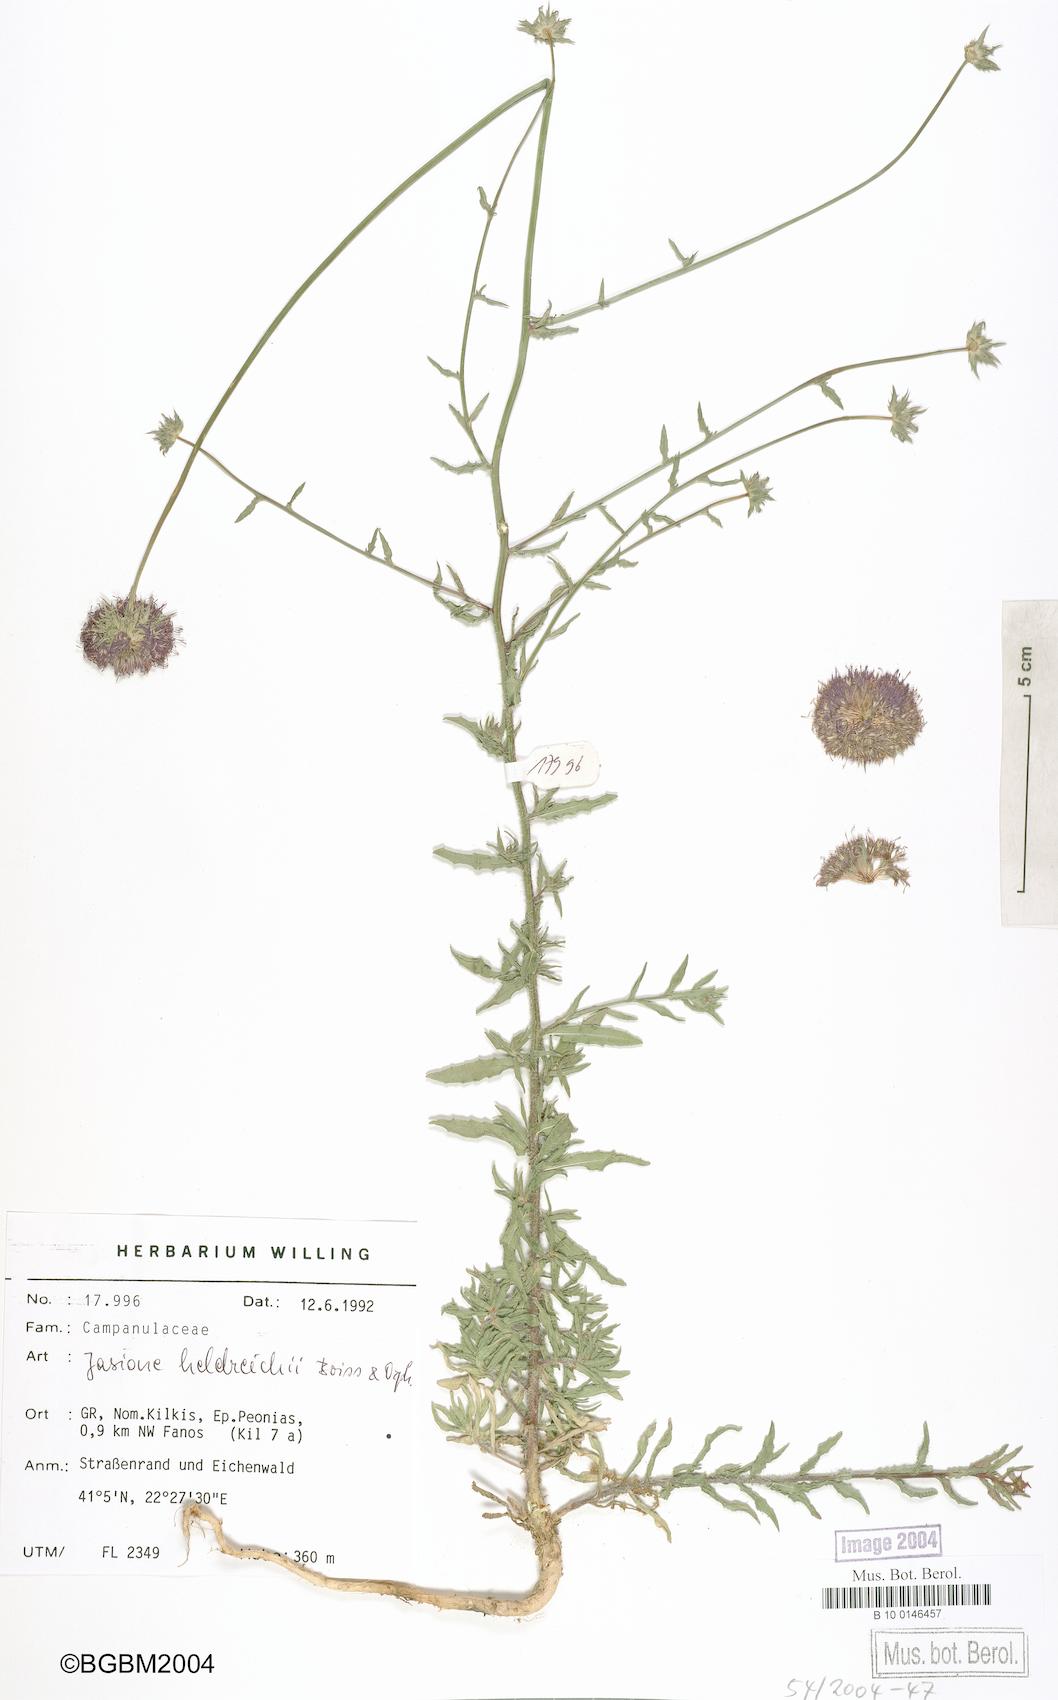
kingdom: Plantae
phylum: Tracheophyta
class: Magnoliopsida
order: Asterales
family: Campanulaceae
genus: Jasione
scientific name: Jasione heldreichii
